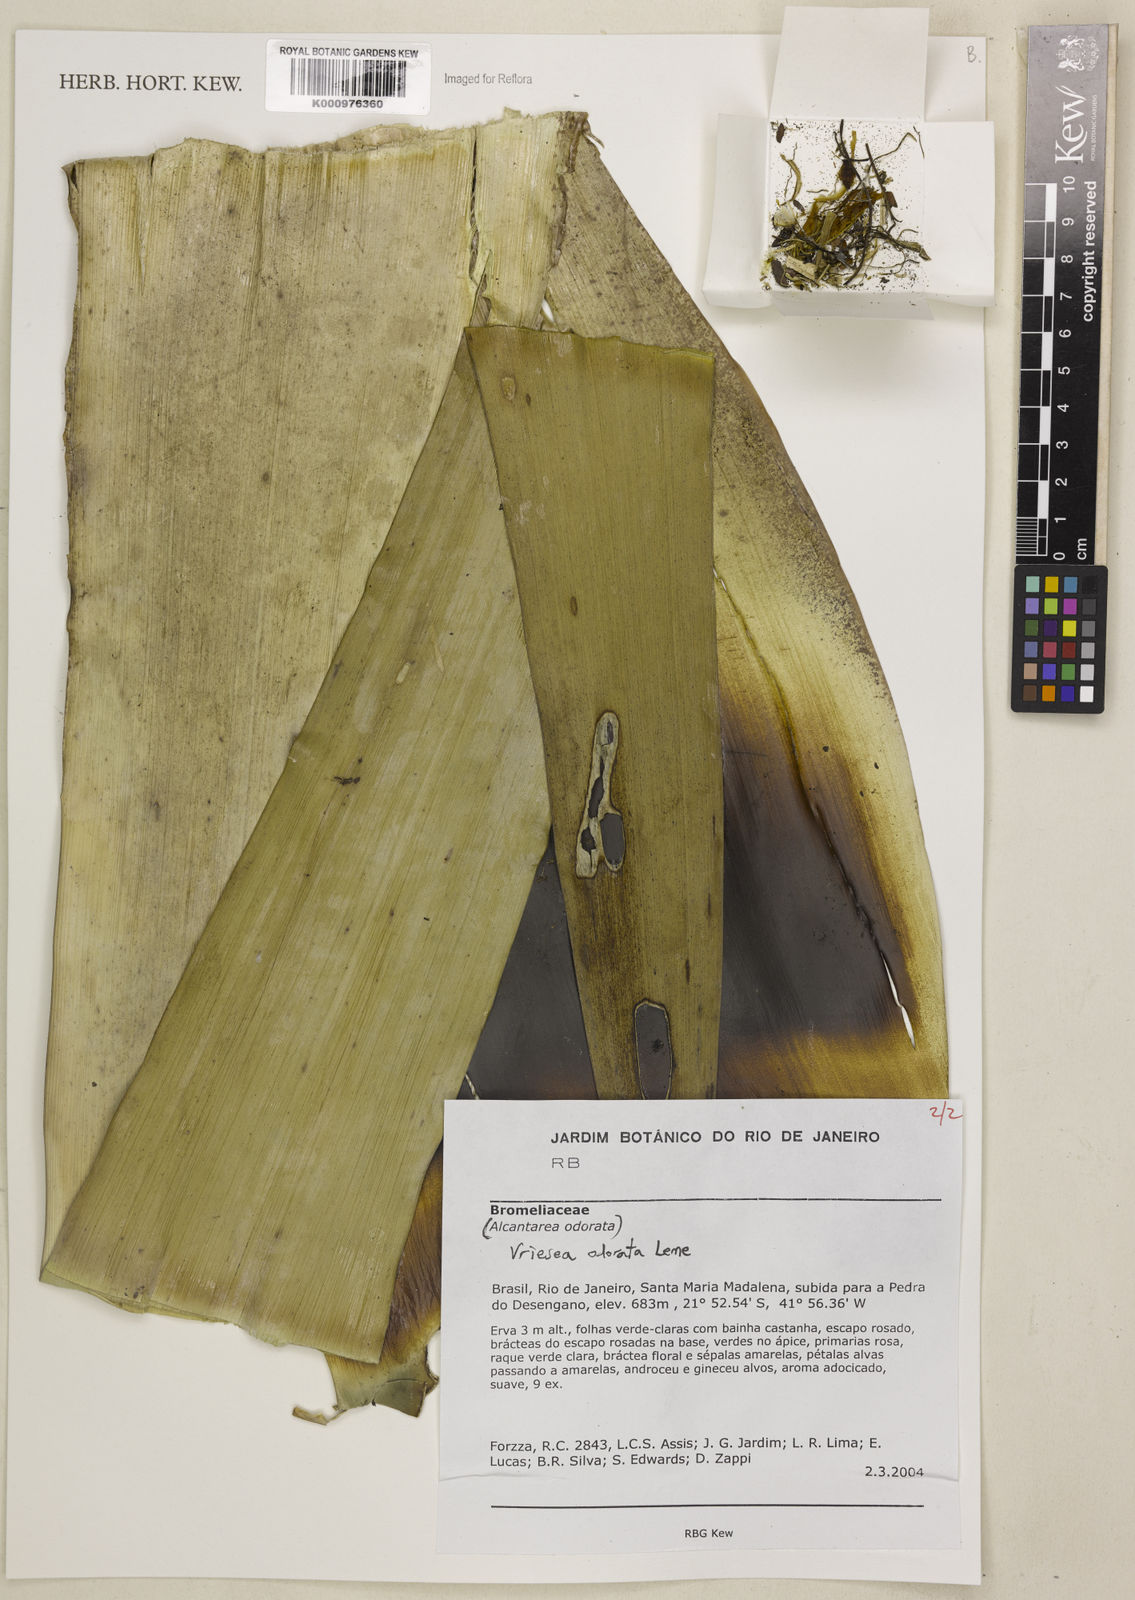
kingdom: Plantae
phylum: Tracheophyta
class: Liliopsida
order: Poales
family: Bromeliaceae
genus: Vriesea
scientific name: Vriesea
